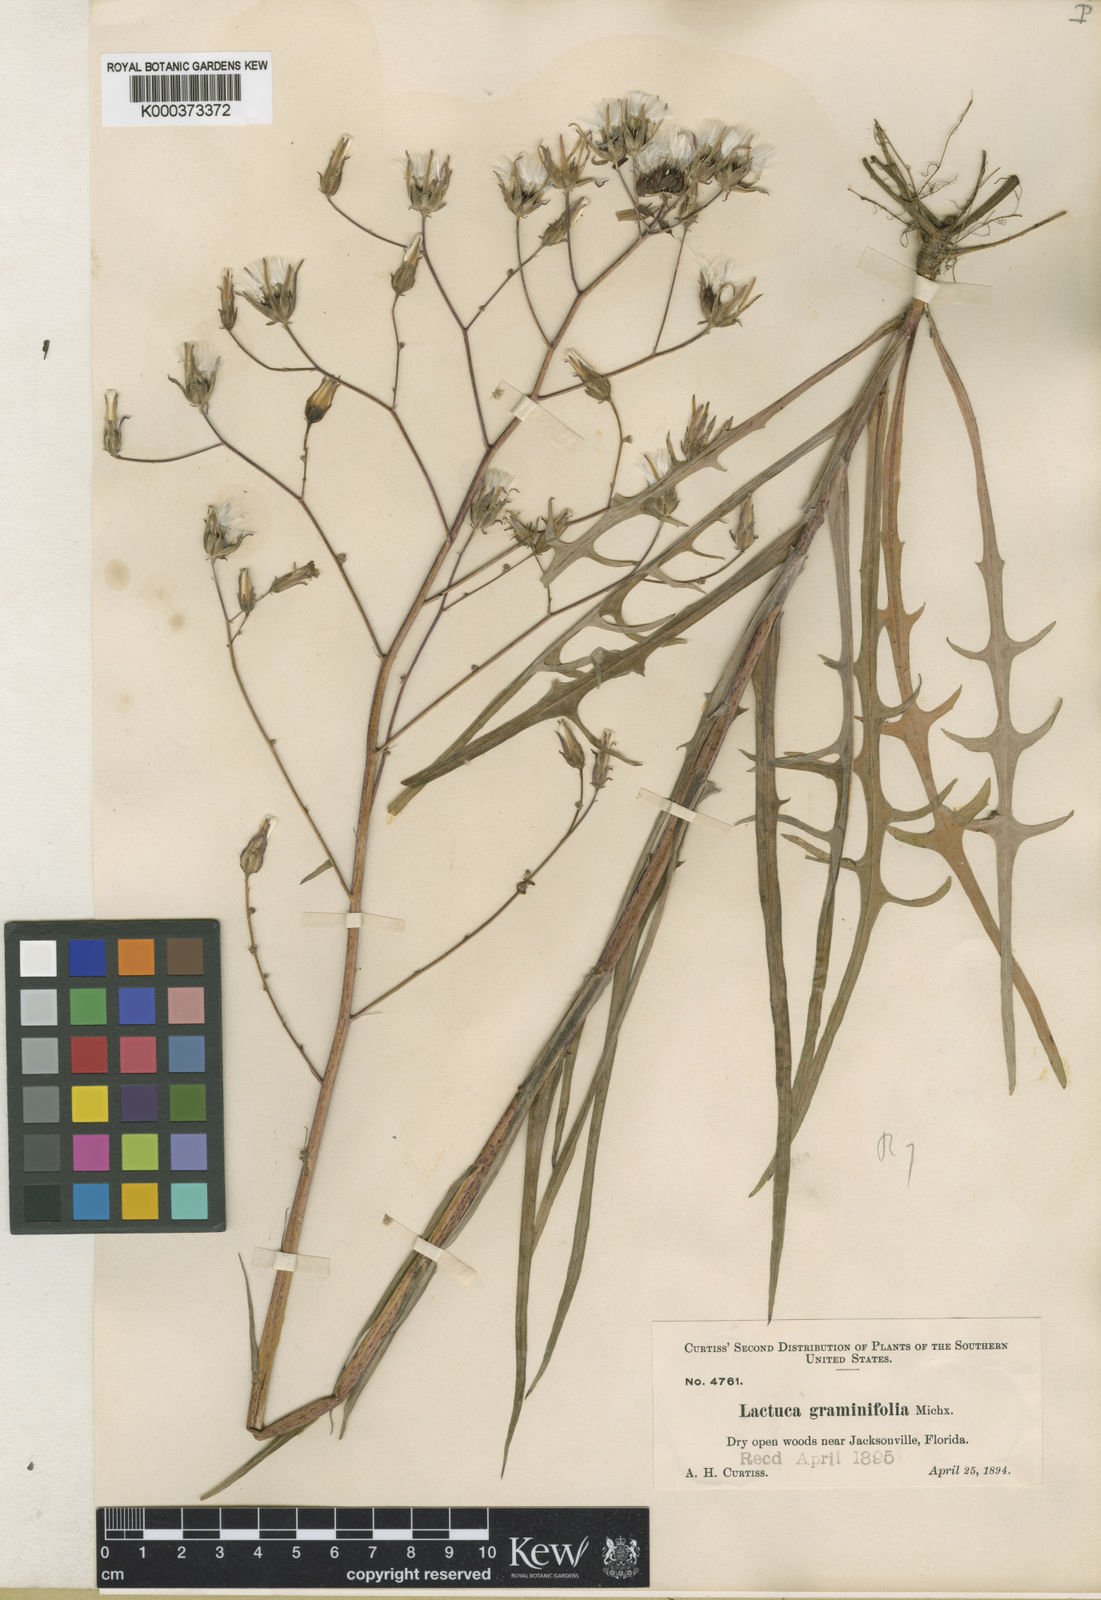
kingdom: Plantae
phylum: Tracheophyta
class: Magnoliopsida
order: Asterales
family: Asteraceae
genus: Lactuca
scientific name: Lactuca graminifolia
